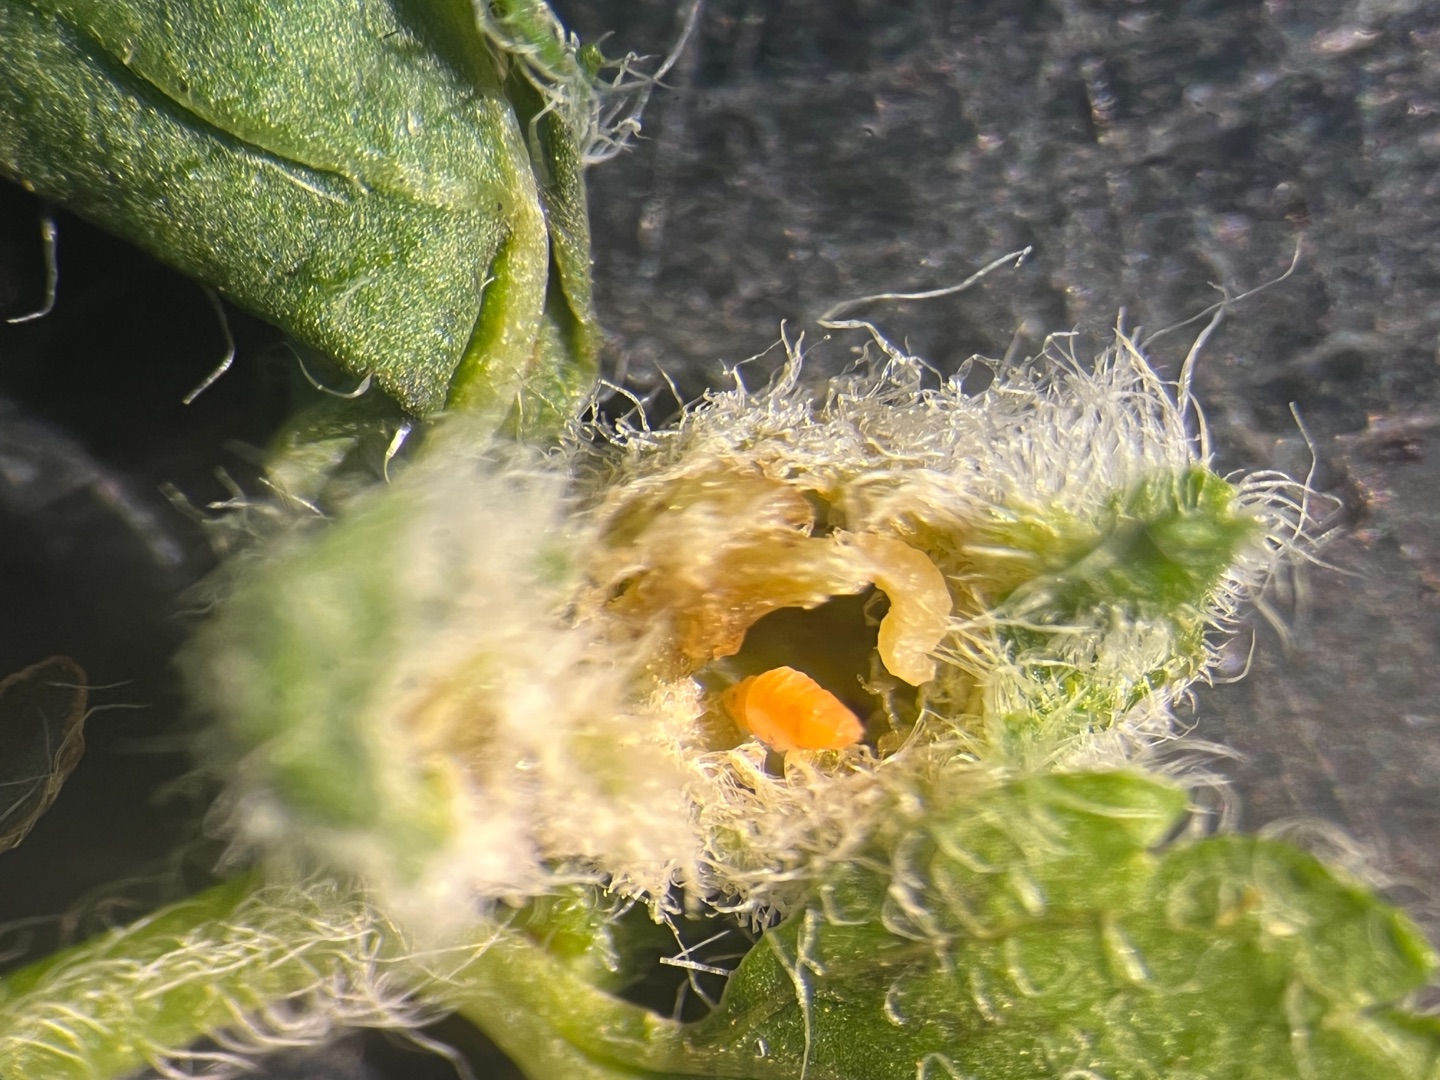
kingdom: Animalia
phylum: Arthropoda
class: Insecta
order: Diptera
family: Cecidomyiidae
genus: Macrolabis
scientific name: Macrolabis incolens
